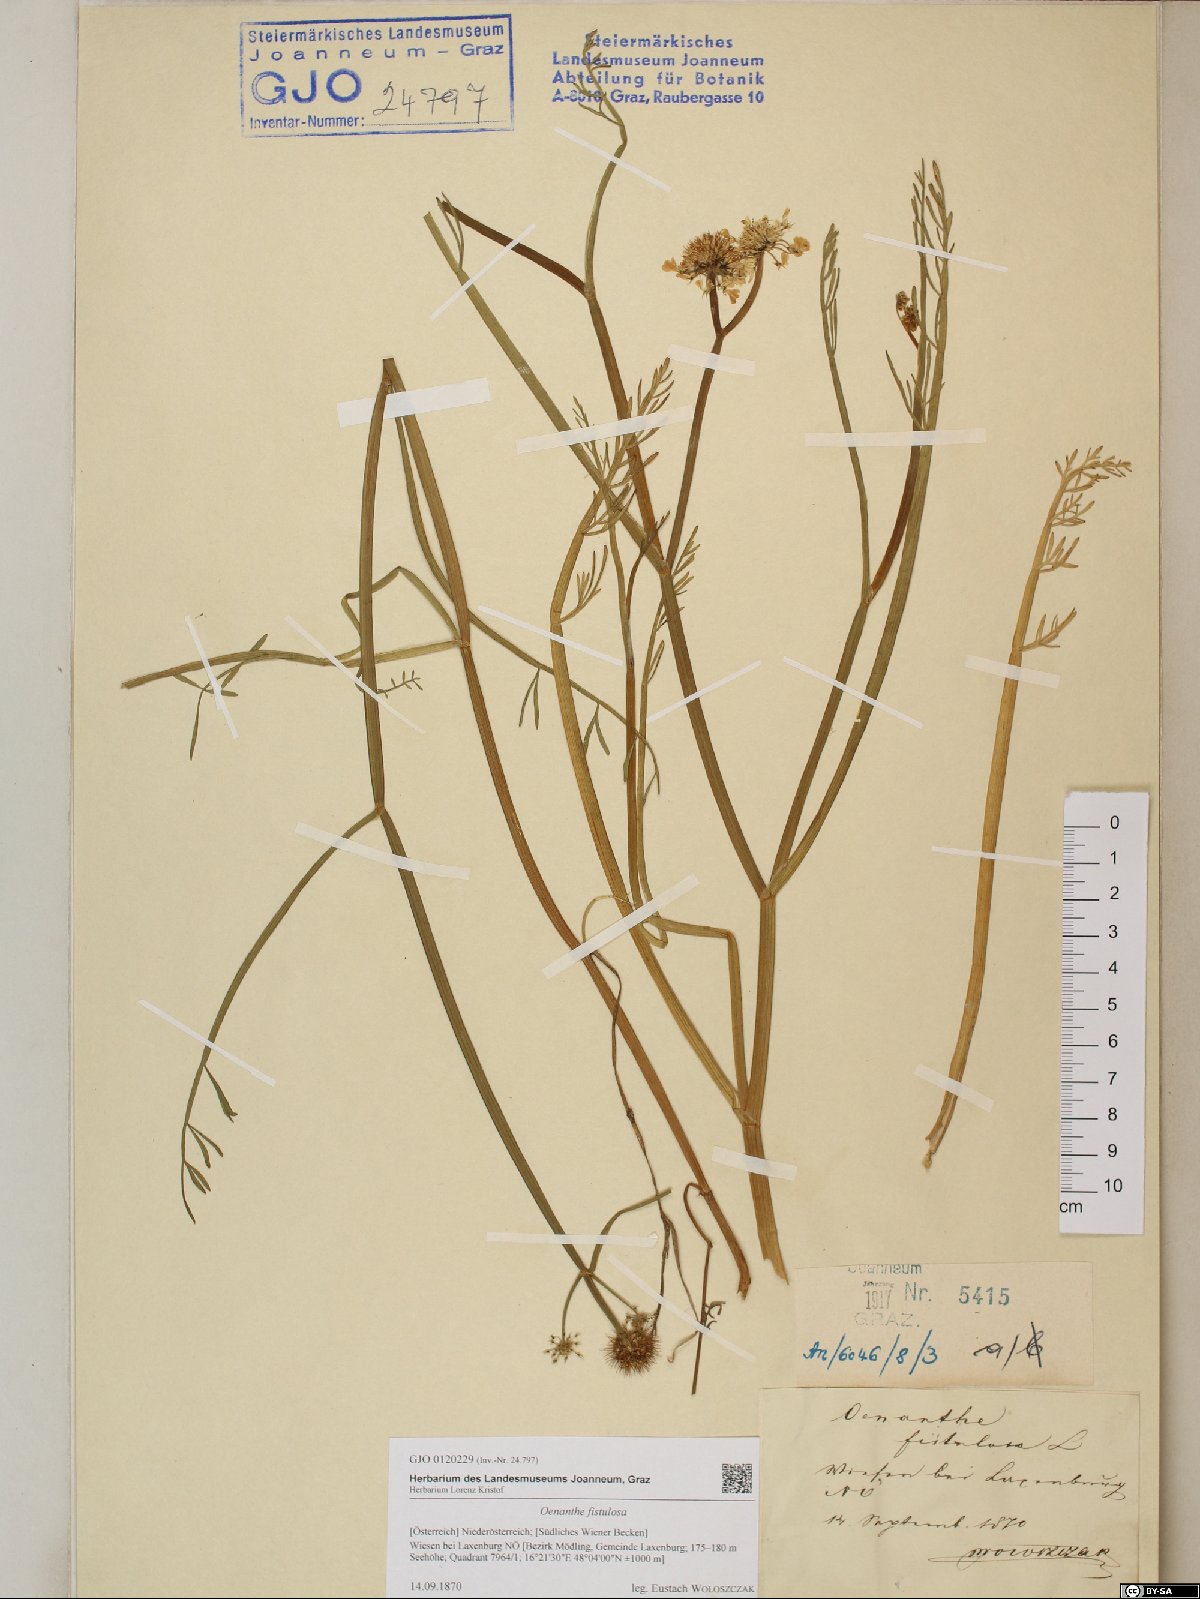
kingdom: Plantae
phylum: Tracheophyta
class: Magnoliopsida
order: Apiales
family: Apiaceae
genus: Oenanthe
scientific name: Oenanthe fistulosa
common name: Tubular water-dropwort
